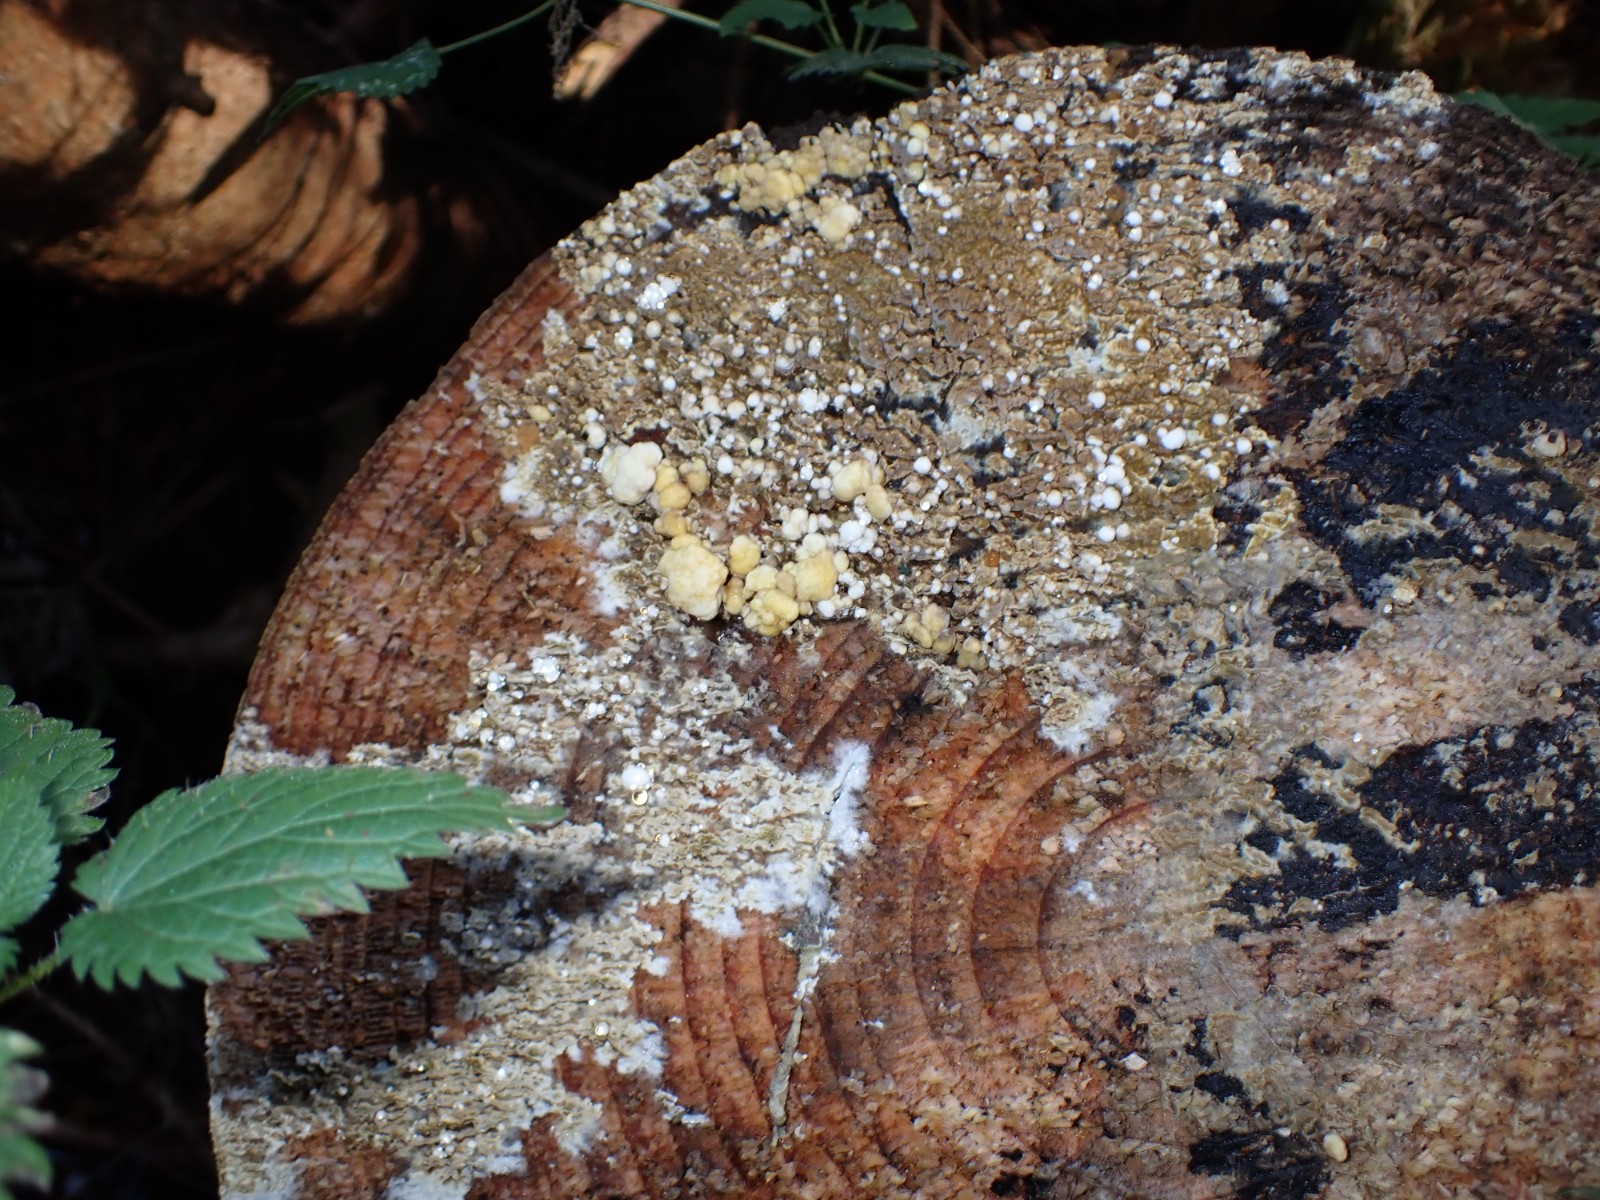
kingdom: Fungi
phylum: Ascomycota
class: Sordariomycetes
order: Xylariales
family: Hypoxylaceae
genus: Nodulisporium
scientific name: Nodulisporium cecidiogenes
